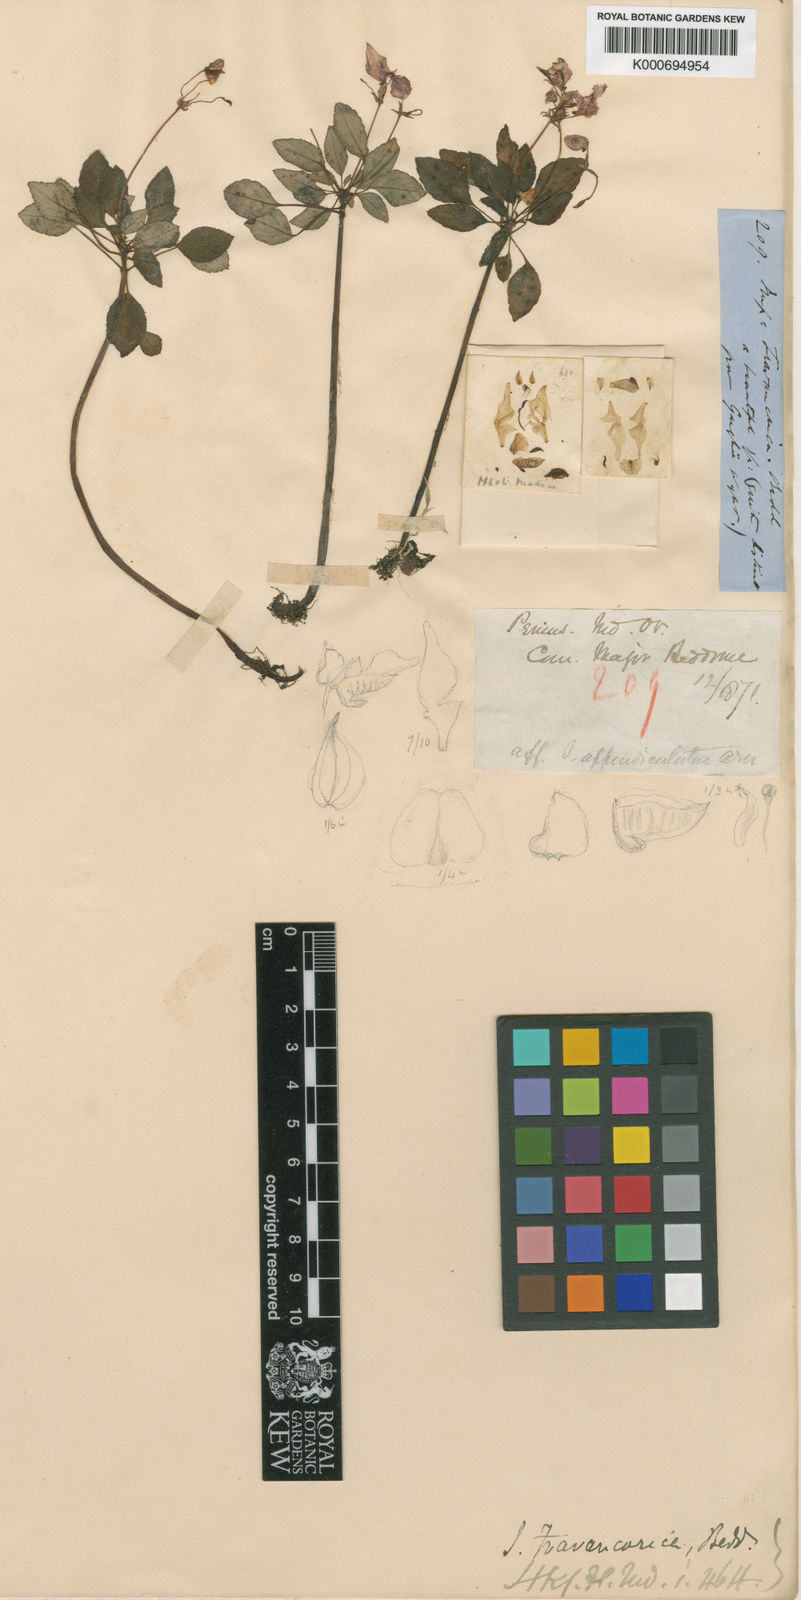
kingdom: Plantae
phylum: Tracheophyta
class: Magnoliopsida
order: Ericales
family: Balsaminaceae
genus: Impatiens
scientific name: Impatiens travancorica
